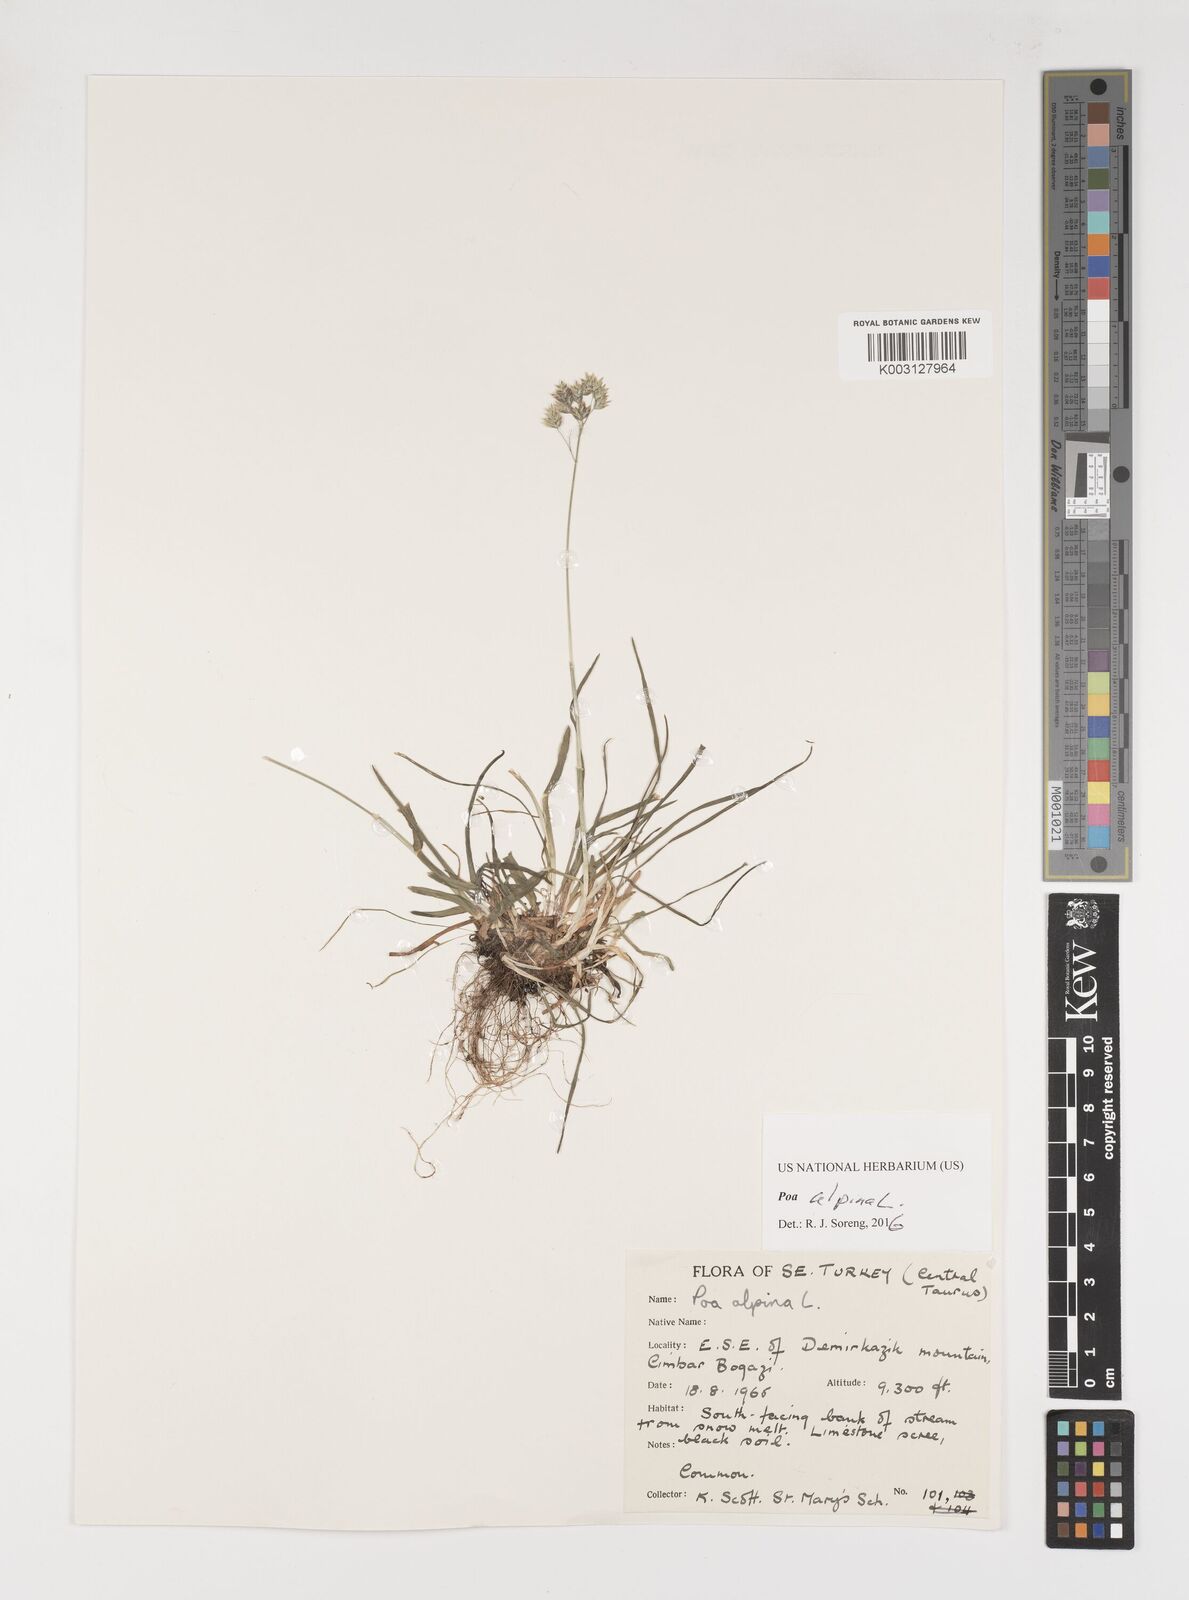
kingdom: Plantae
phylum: Tracheophyta
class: Liliopsida
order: Poales
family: Poaceae
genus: Poa
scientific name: Poa alpina
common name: Alpine bluegrass
